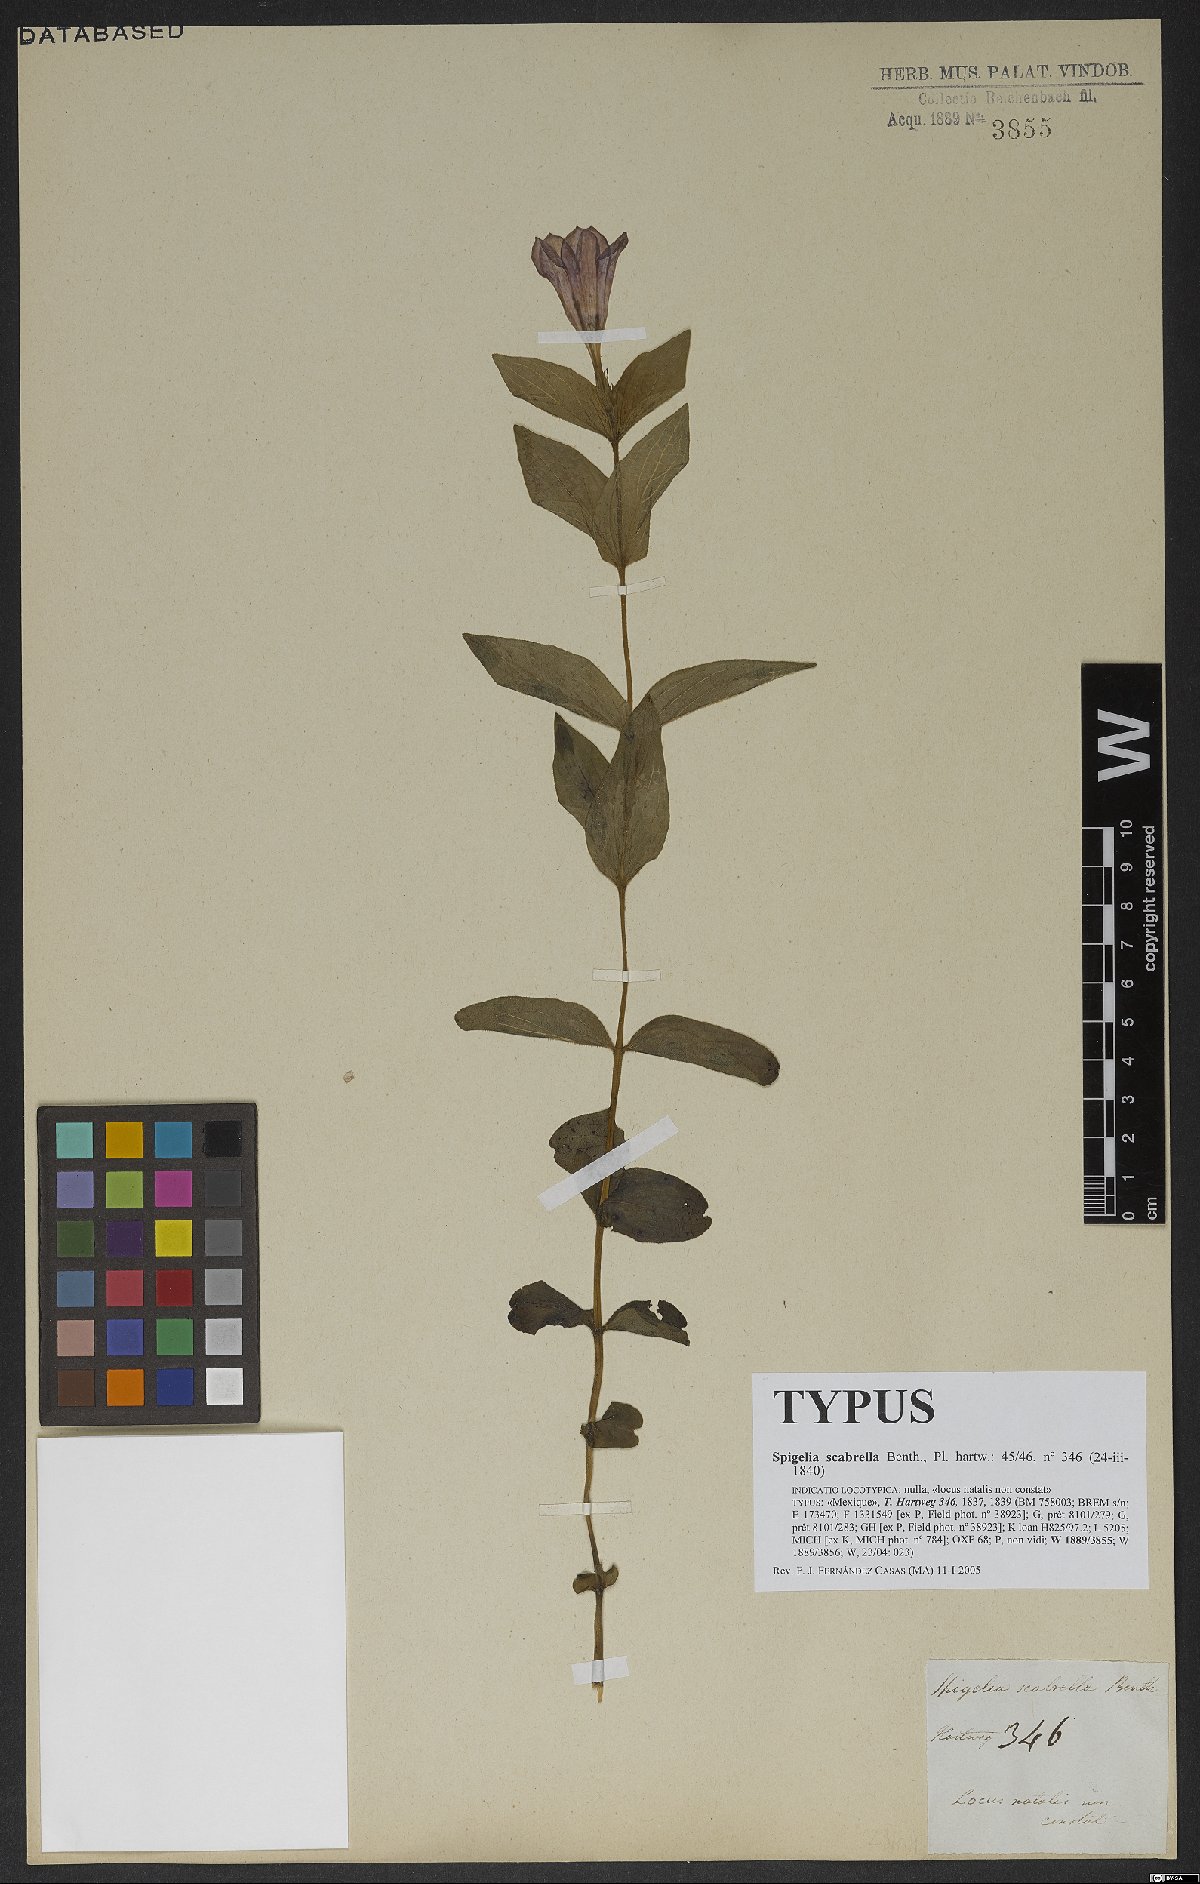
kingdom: Plantae
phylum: Tracheophyta
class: Magnoliopsida
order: Gentianales
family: Loganiaceae
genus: Spigelia
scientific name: Spigelia scabrella
